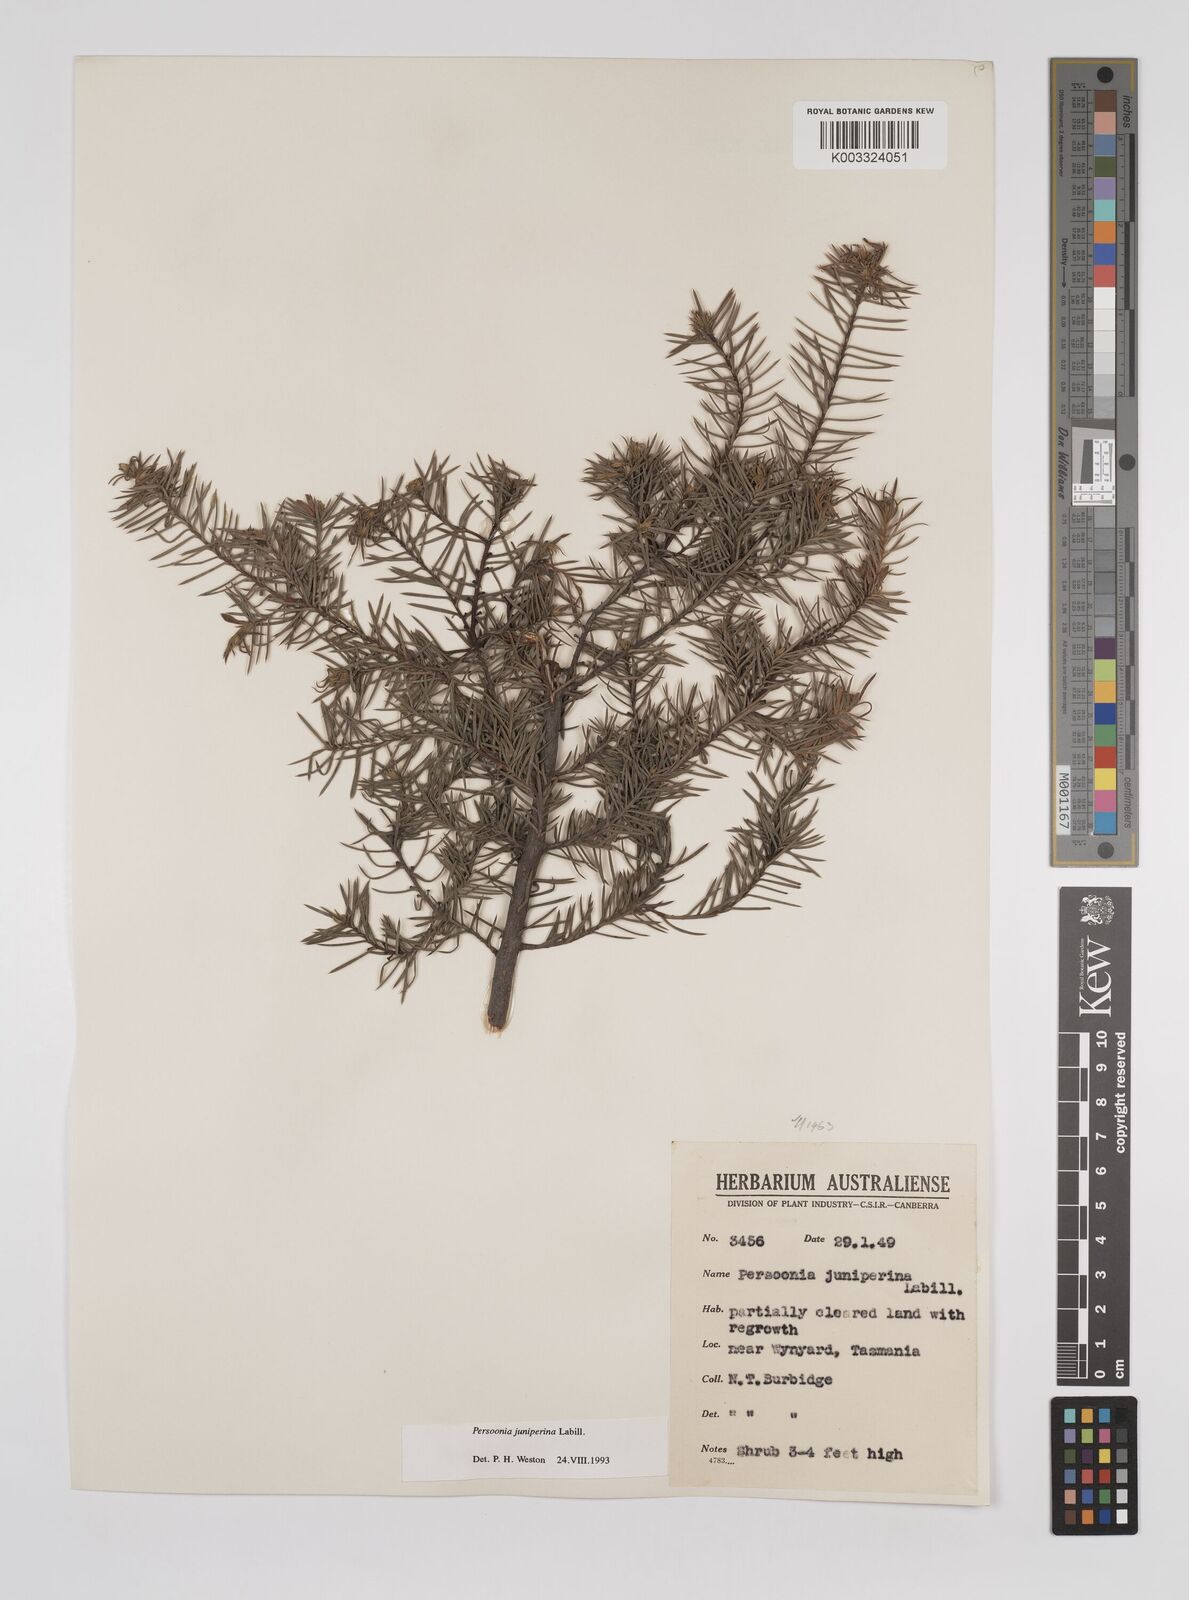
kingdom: Plantae
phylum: Tracheophyta
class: Magnoliopsida
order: Proteales
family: Proteaceae
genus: Persoonia
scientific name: Persoonia juniperina
